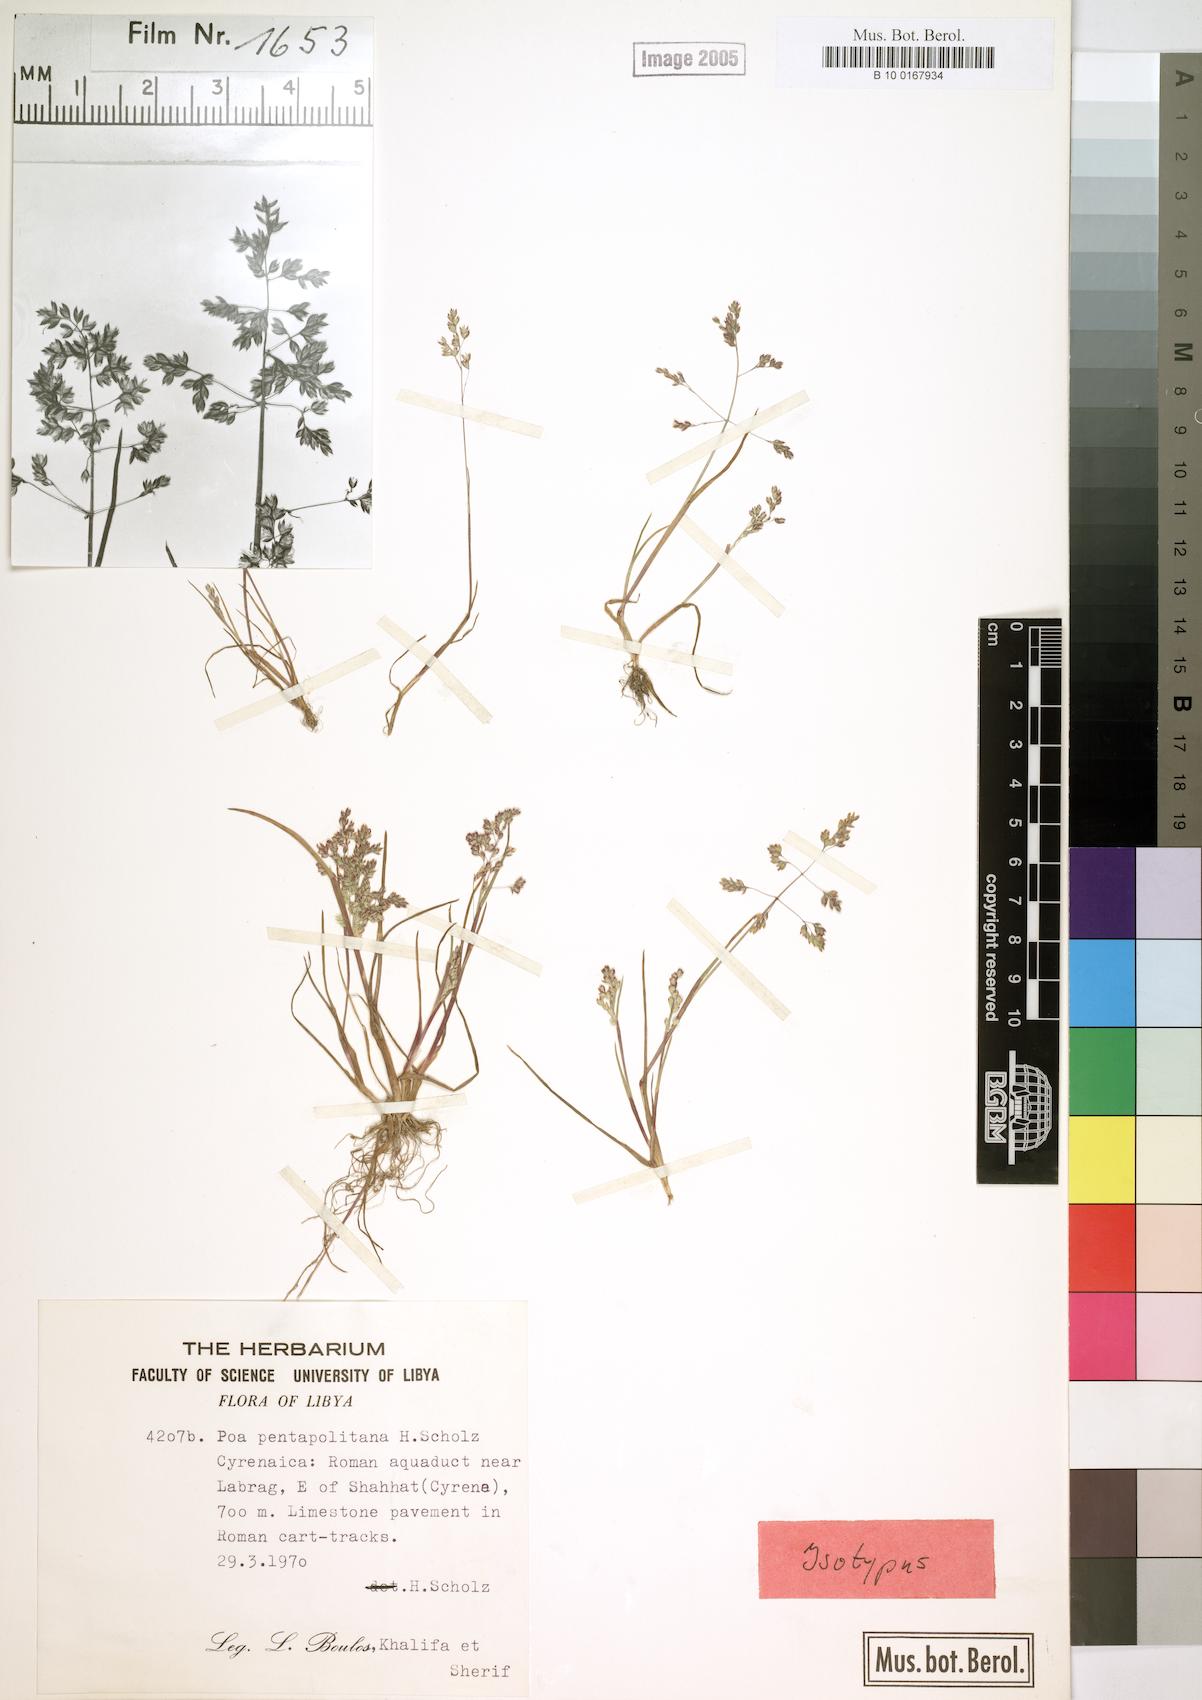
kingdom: Plantae
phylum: Tracheophyta
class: Liliopsida
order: Poales
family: Poaceae
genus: Poa
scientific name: Poa pentapolitana
